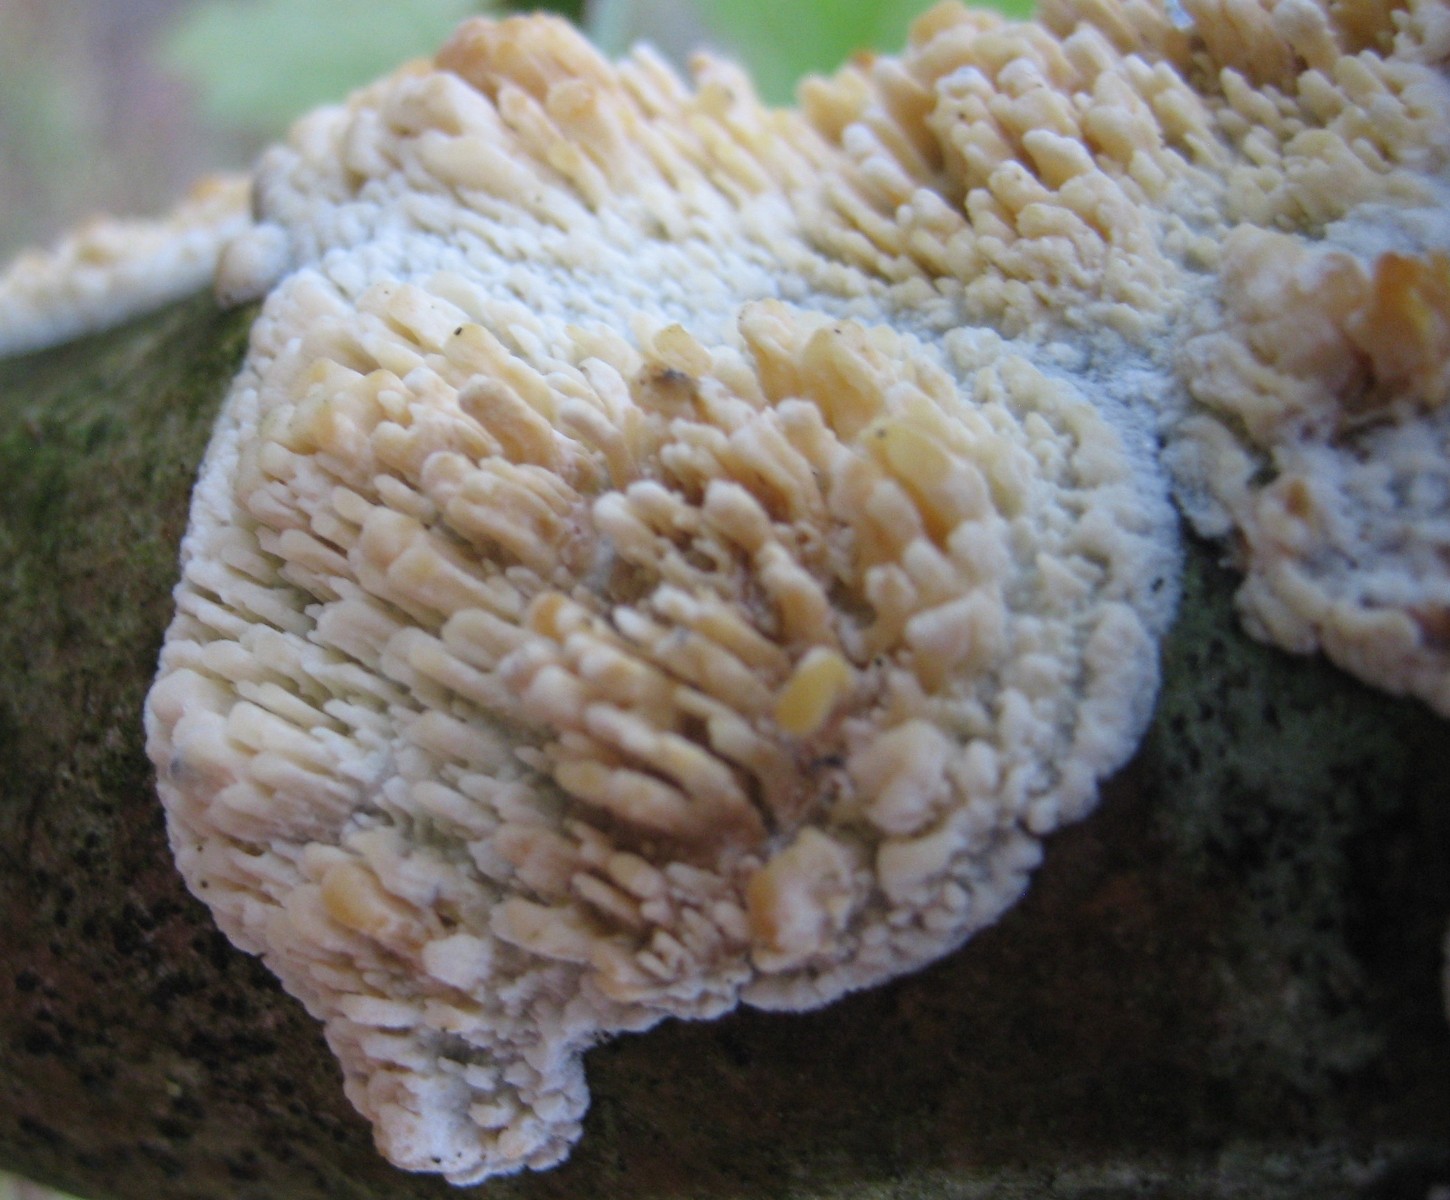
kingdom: Fungi
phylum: Basidiomycota
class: Agaricomycetes
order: Hymenochaetales
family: Schizoporaceae
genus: Xylodon
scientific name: Xylodon radula
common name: grovtandet kalkskind
